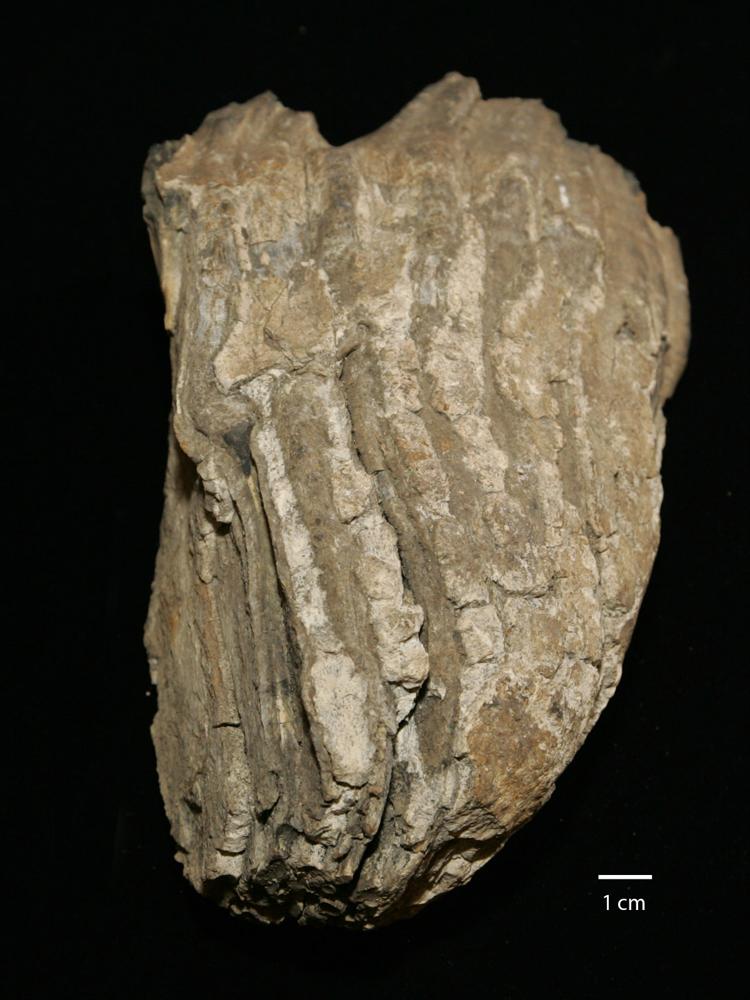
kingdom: Animalia
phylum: Chordata
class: Mammalia
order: Proboscidea
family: Elephantidae
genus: Mammuthus
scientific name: Mammuthus primigenius
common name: Wooly mammoth
